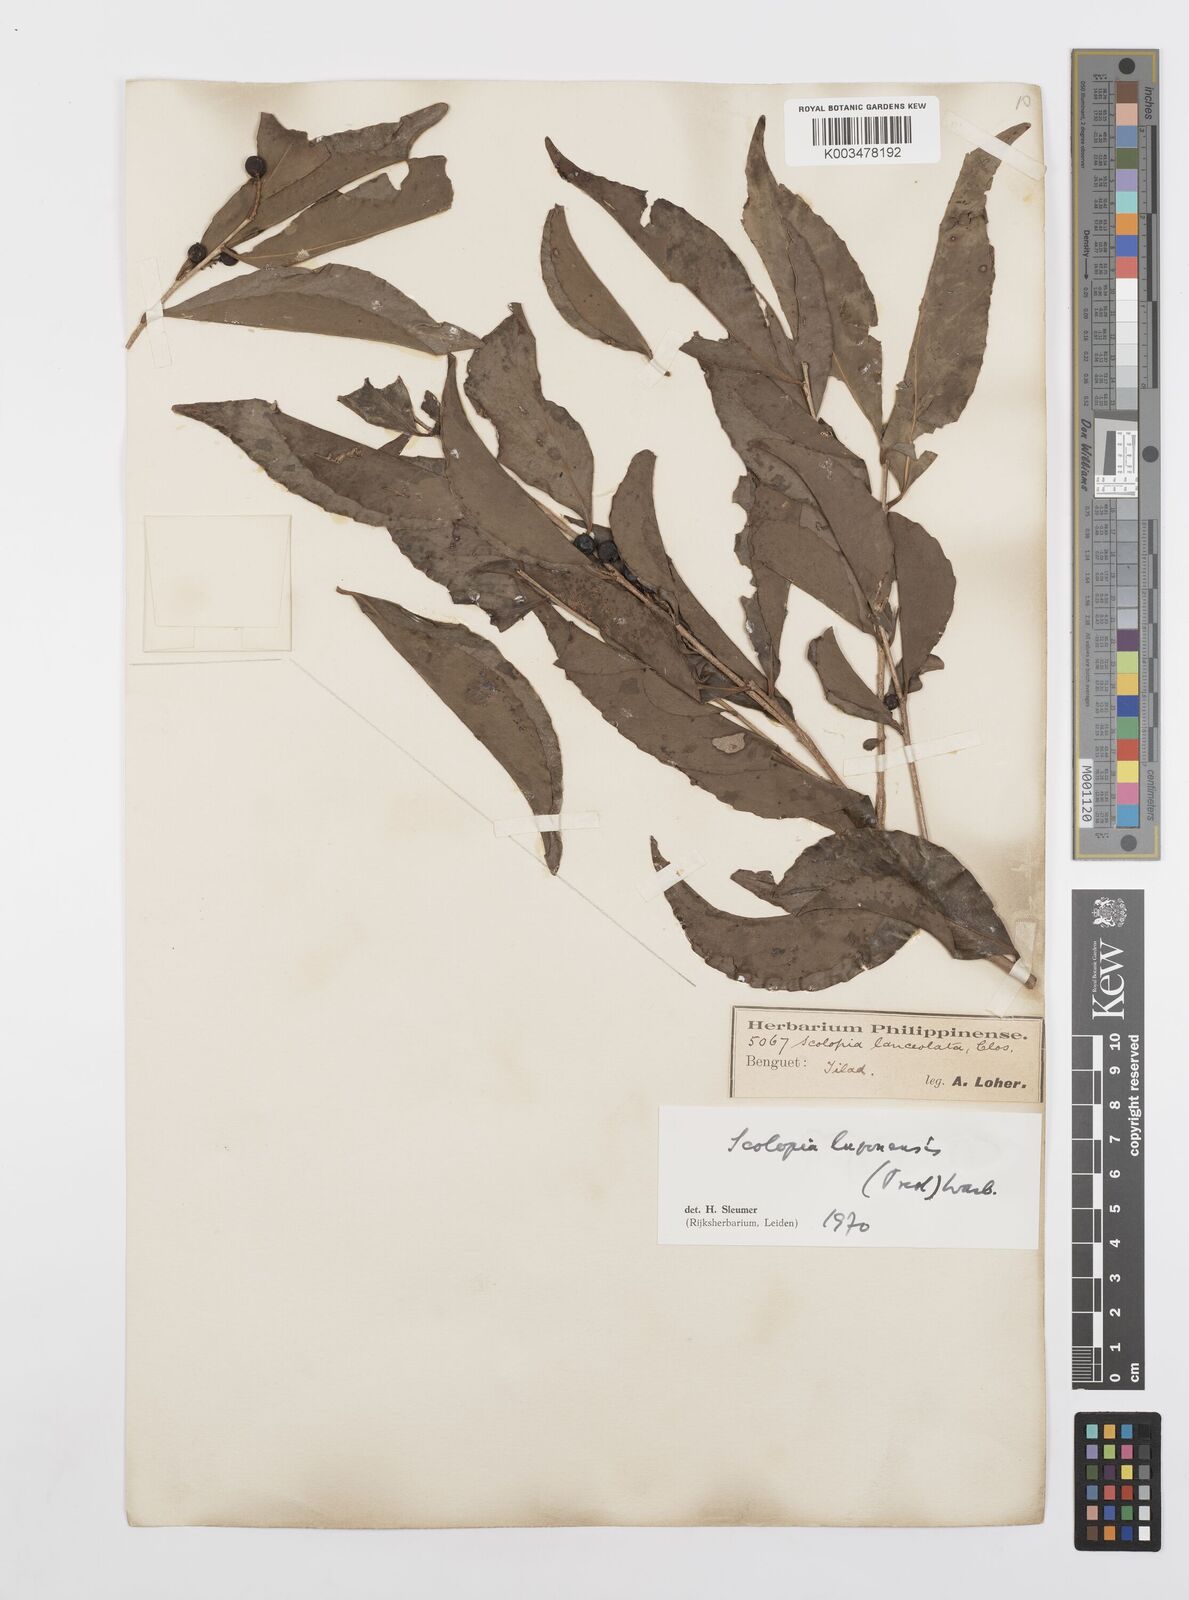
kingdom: Plantae
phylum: Tracheophyta
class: Magnoliopsida
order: Malpighiales
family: Salicaceae
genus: Scolopia
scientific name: Scolopia luzonensis
